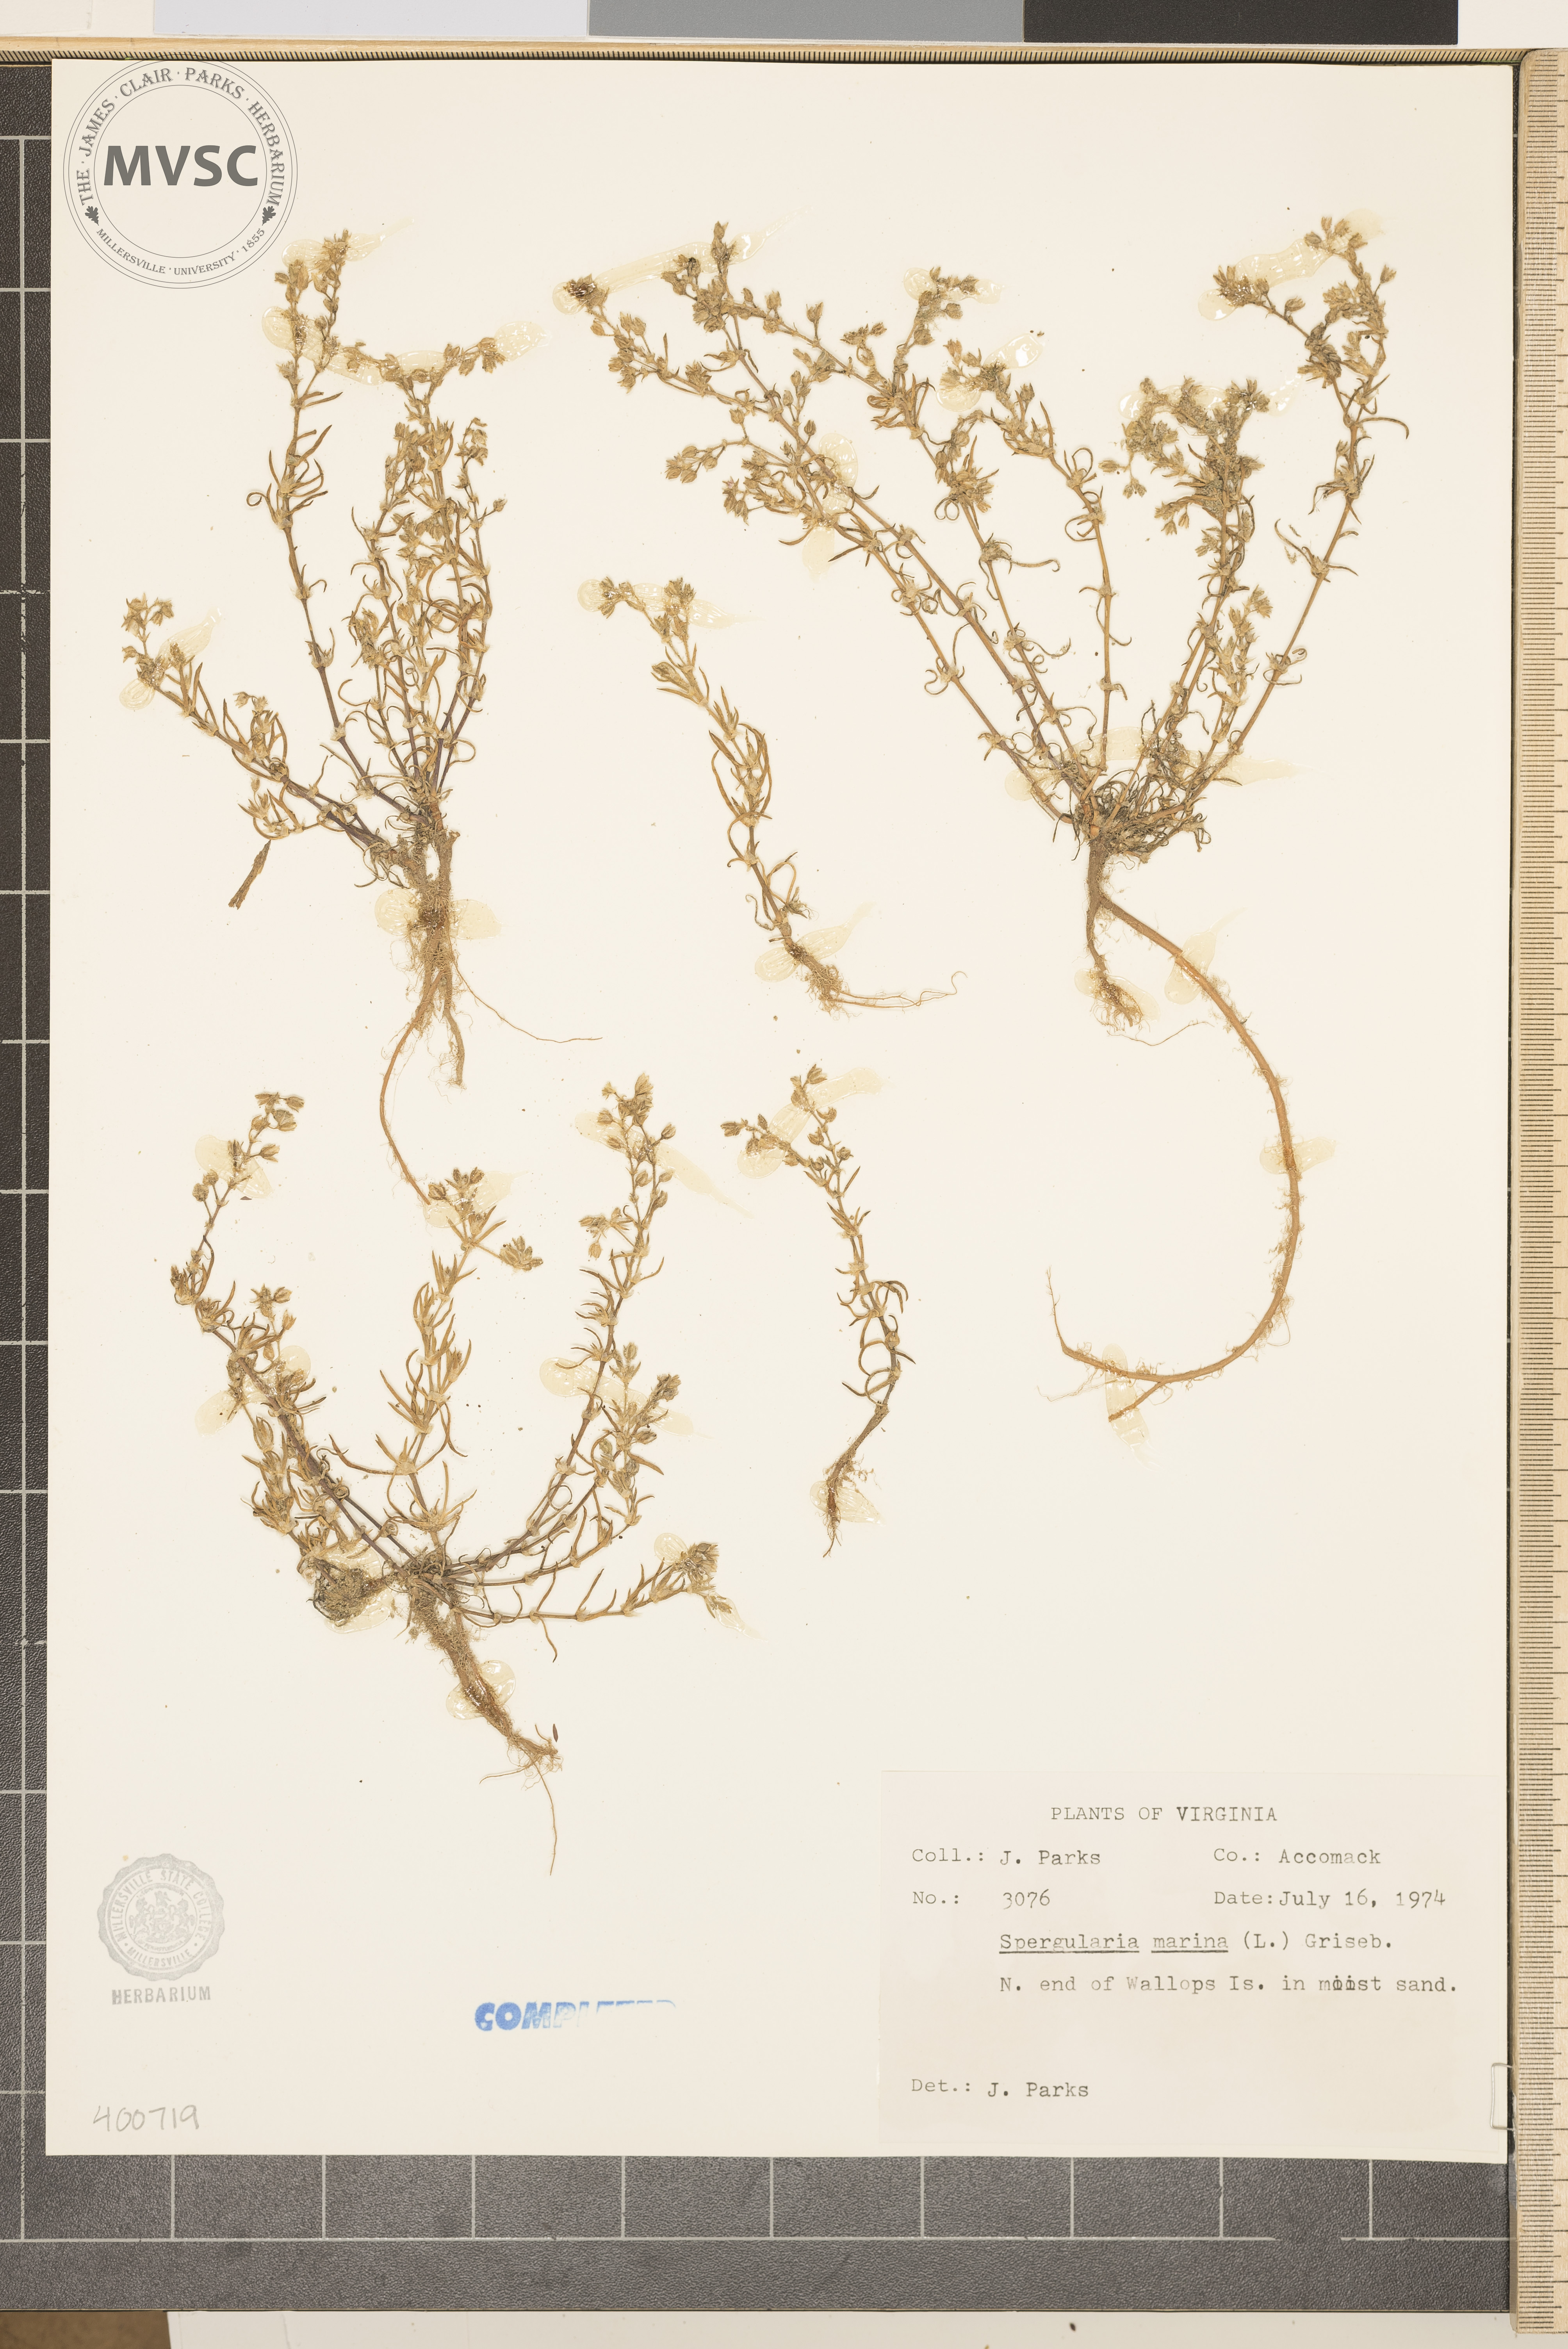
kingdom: Plantae
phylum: Tracheophyta
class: Magnoliopsida
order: Caryophyllales
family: Caryophyllaceae
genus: Spergularia
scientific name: Spergularia marina
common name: Lesser sea-spurrey
